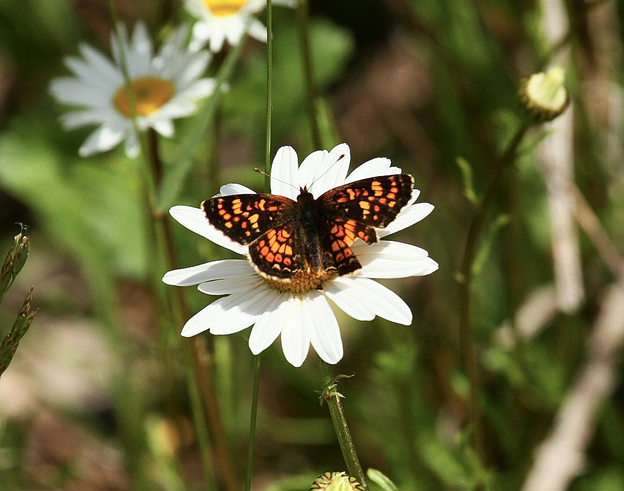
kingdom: Animalia
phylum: Arthropoda
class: Insecta
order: Lepidoptera
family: Nymphalidae
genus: Phyciodes
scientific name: Phyciodes tharos
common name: Field Crescent
